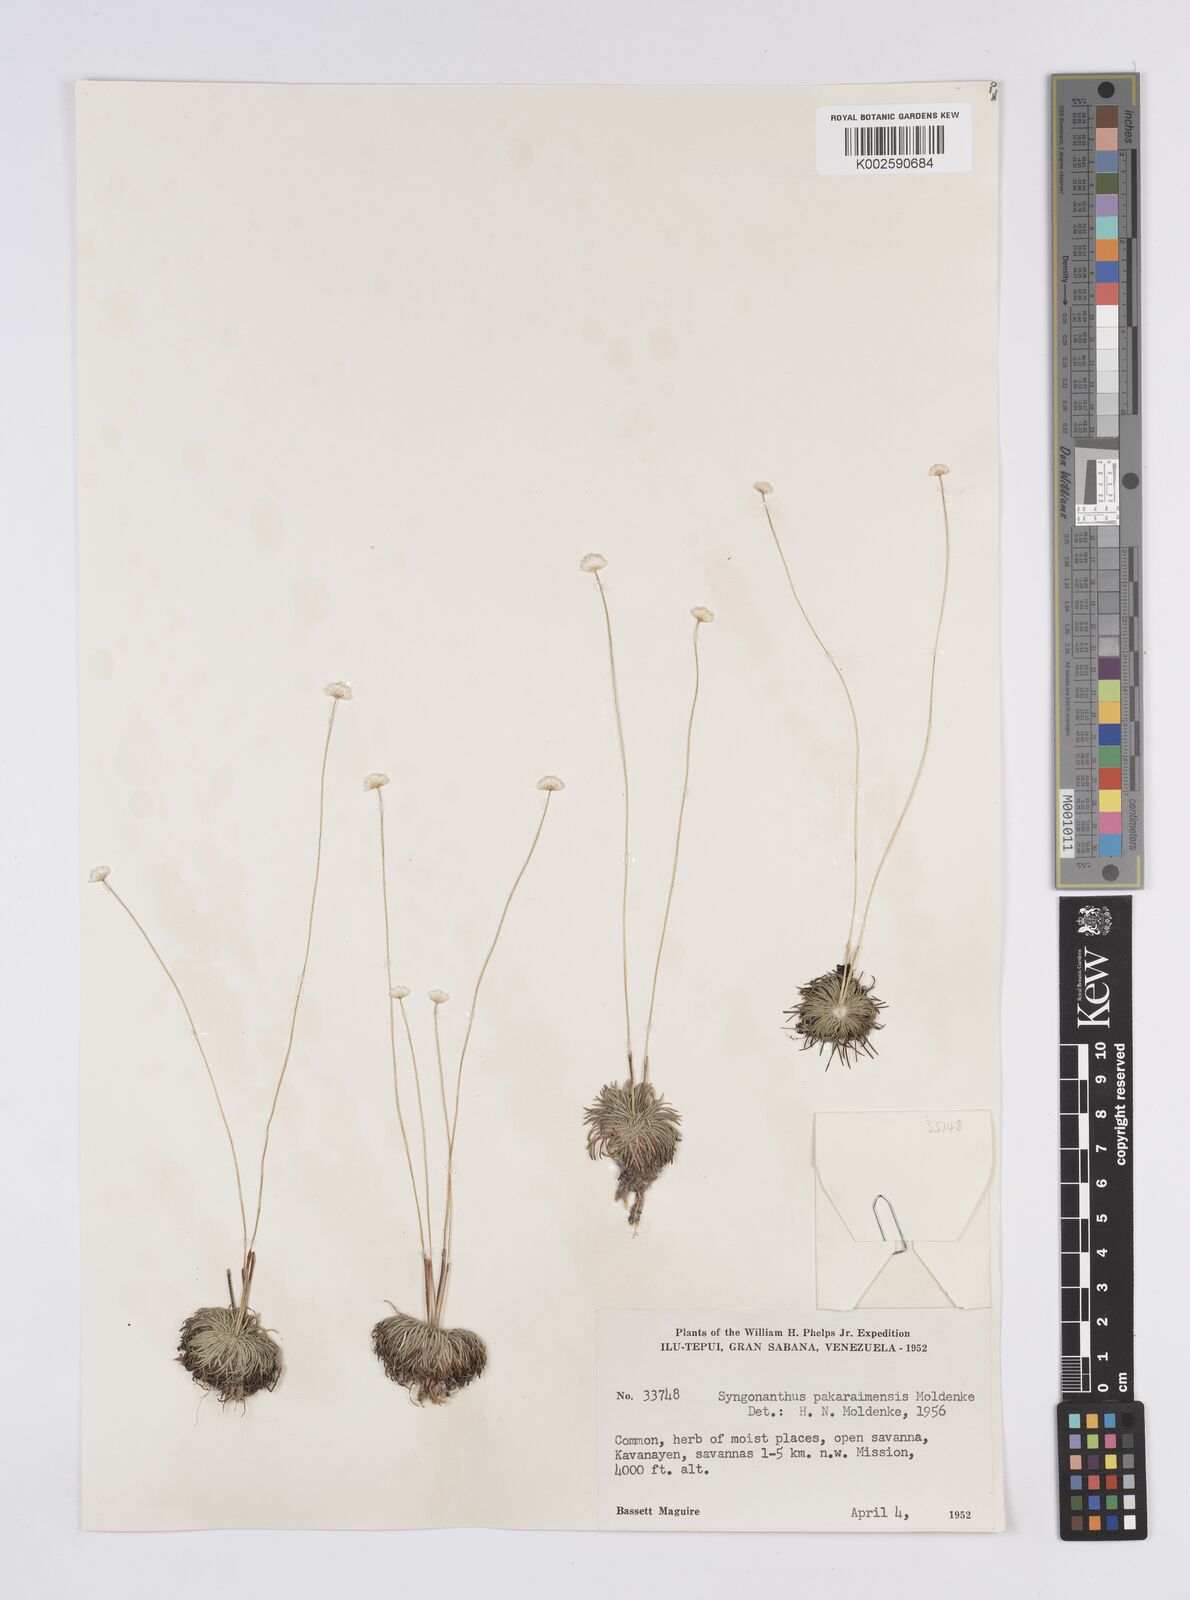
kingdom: Plantae
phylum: Tracheophyta
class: Liliopsida
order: Poales
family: Eriocaulaceae
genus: Syngonanthus
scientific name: Syngonanthus pakaraimensis
